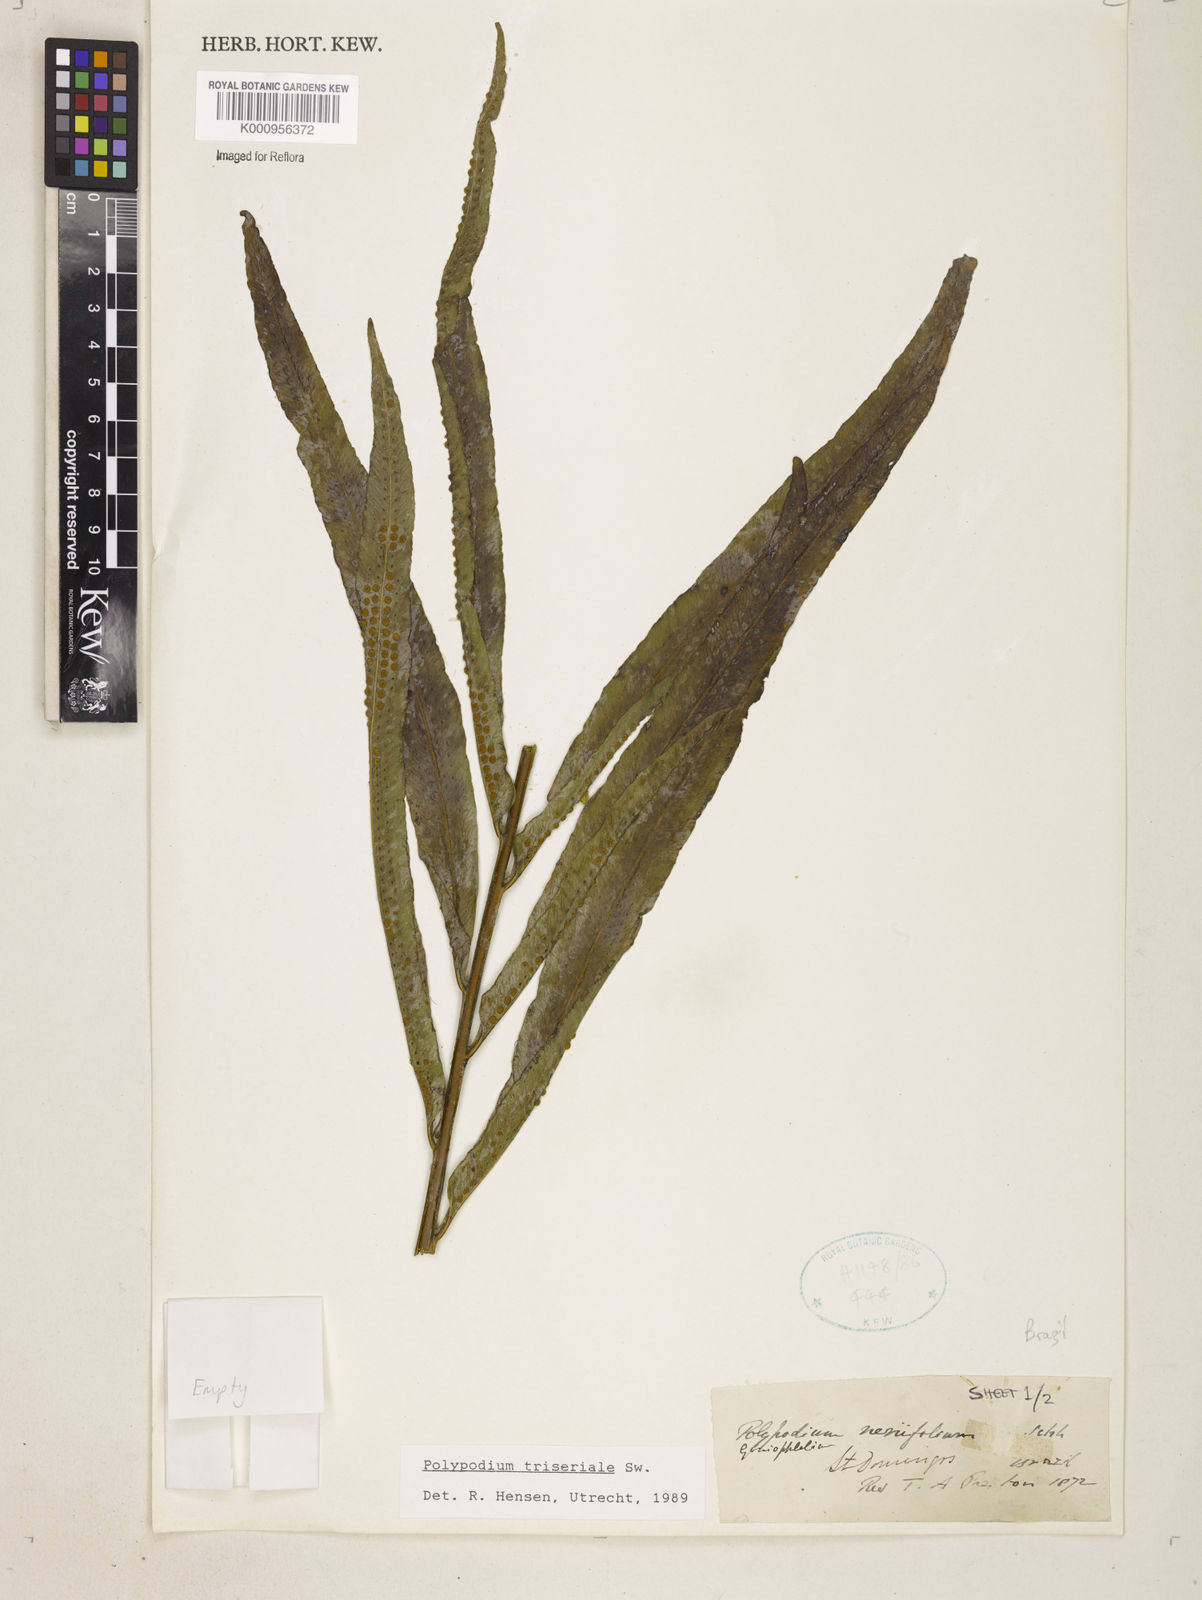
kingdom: Plantae
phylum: Tracheophyta
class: Polypodiopsida
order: Polypodiales
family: Polypodiaceae
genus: Serpocaulon
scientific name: Serpocaulon triseriale
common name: Angle-vein fern
